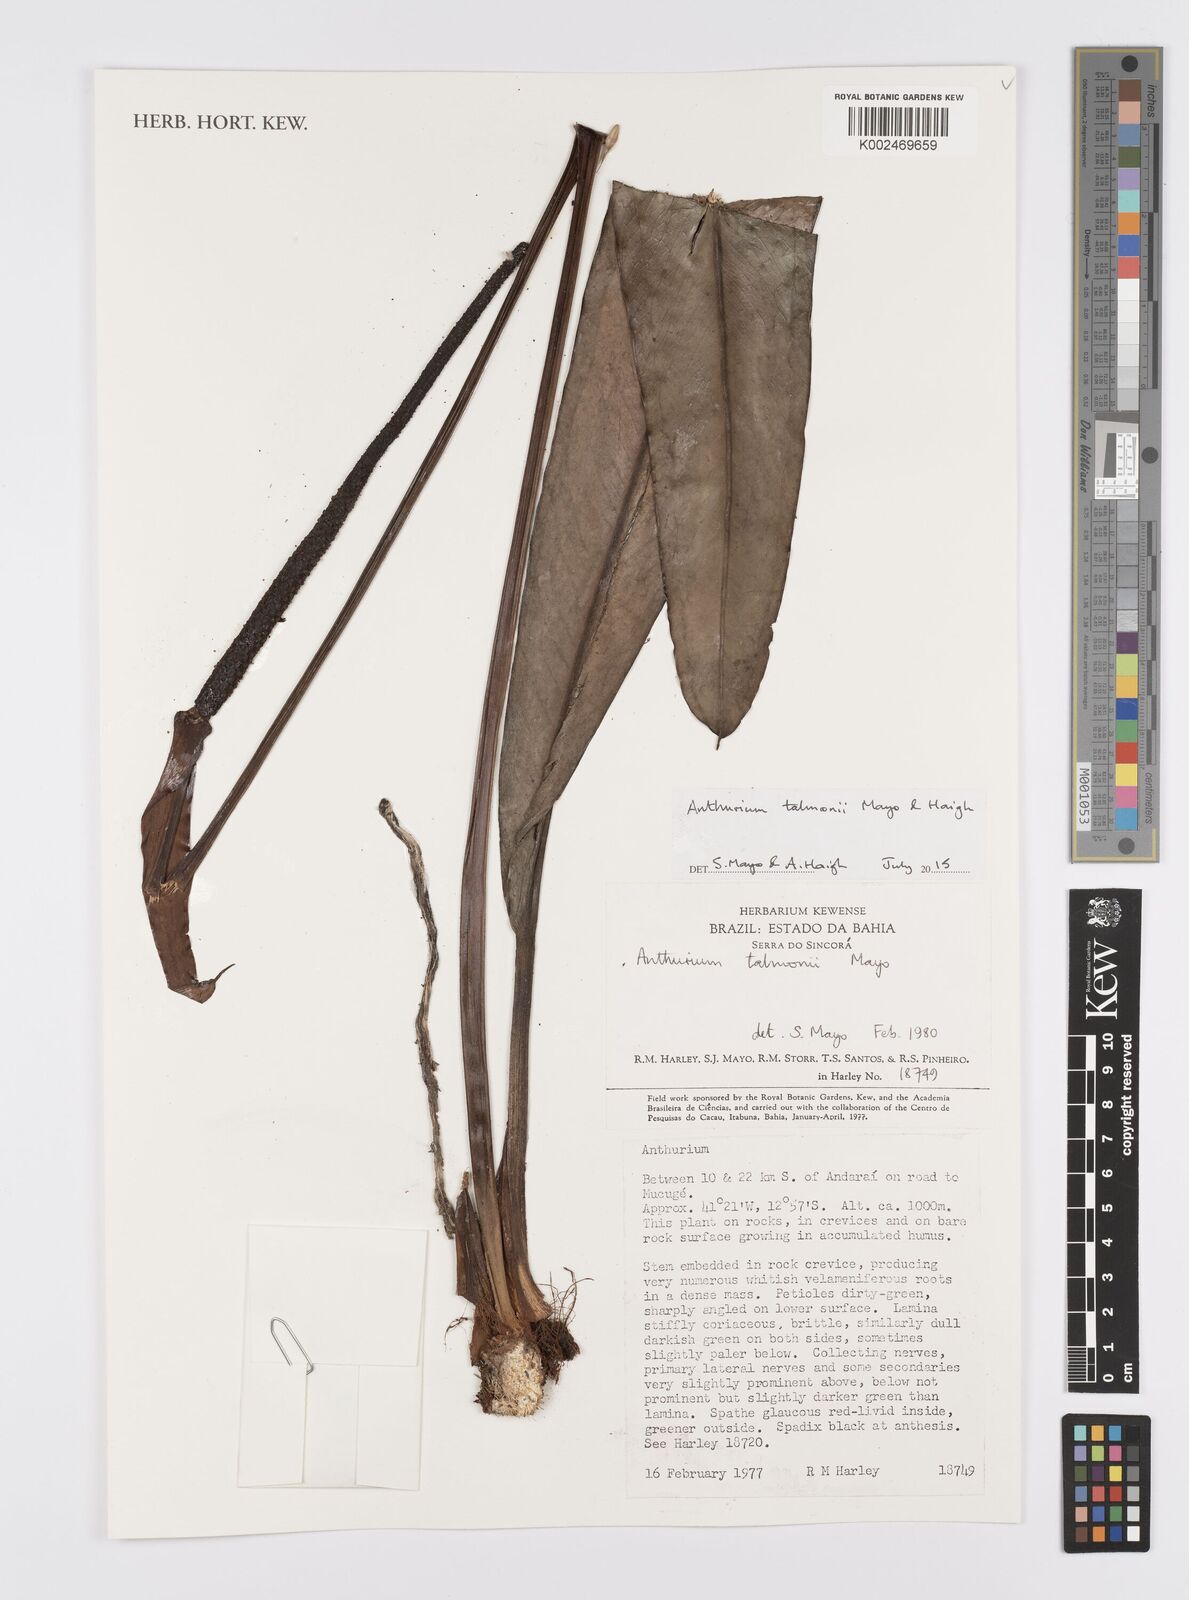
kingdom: Plantae
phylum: Tracheophyta
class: Liliopsida
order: Alismatales
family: Araceae
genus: Anthurium
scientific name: Anthurium talmonii
